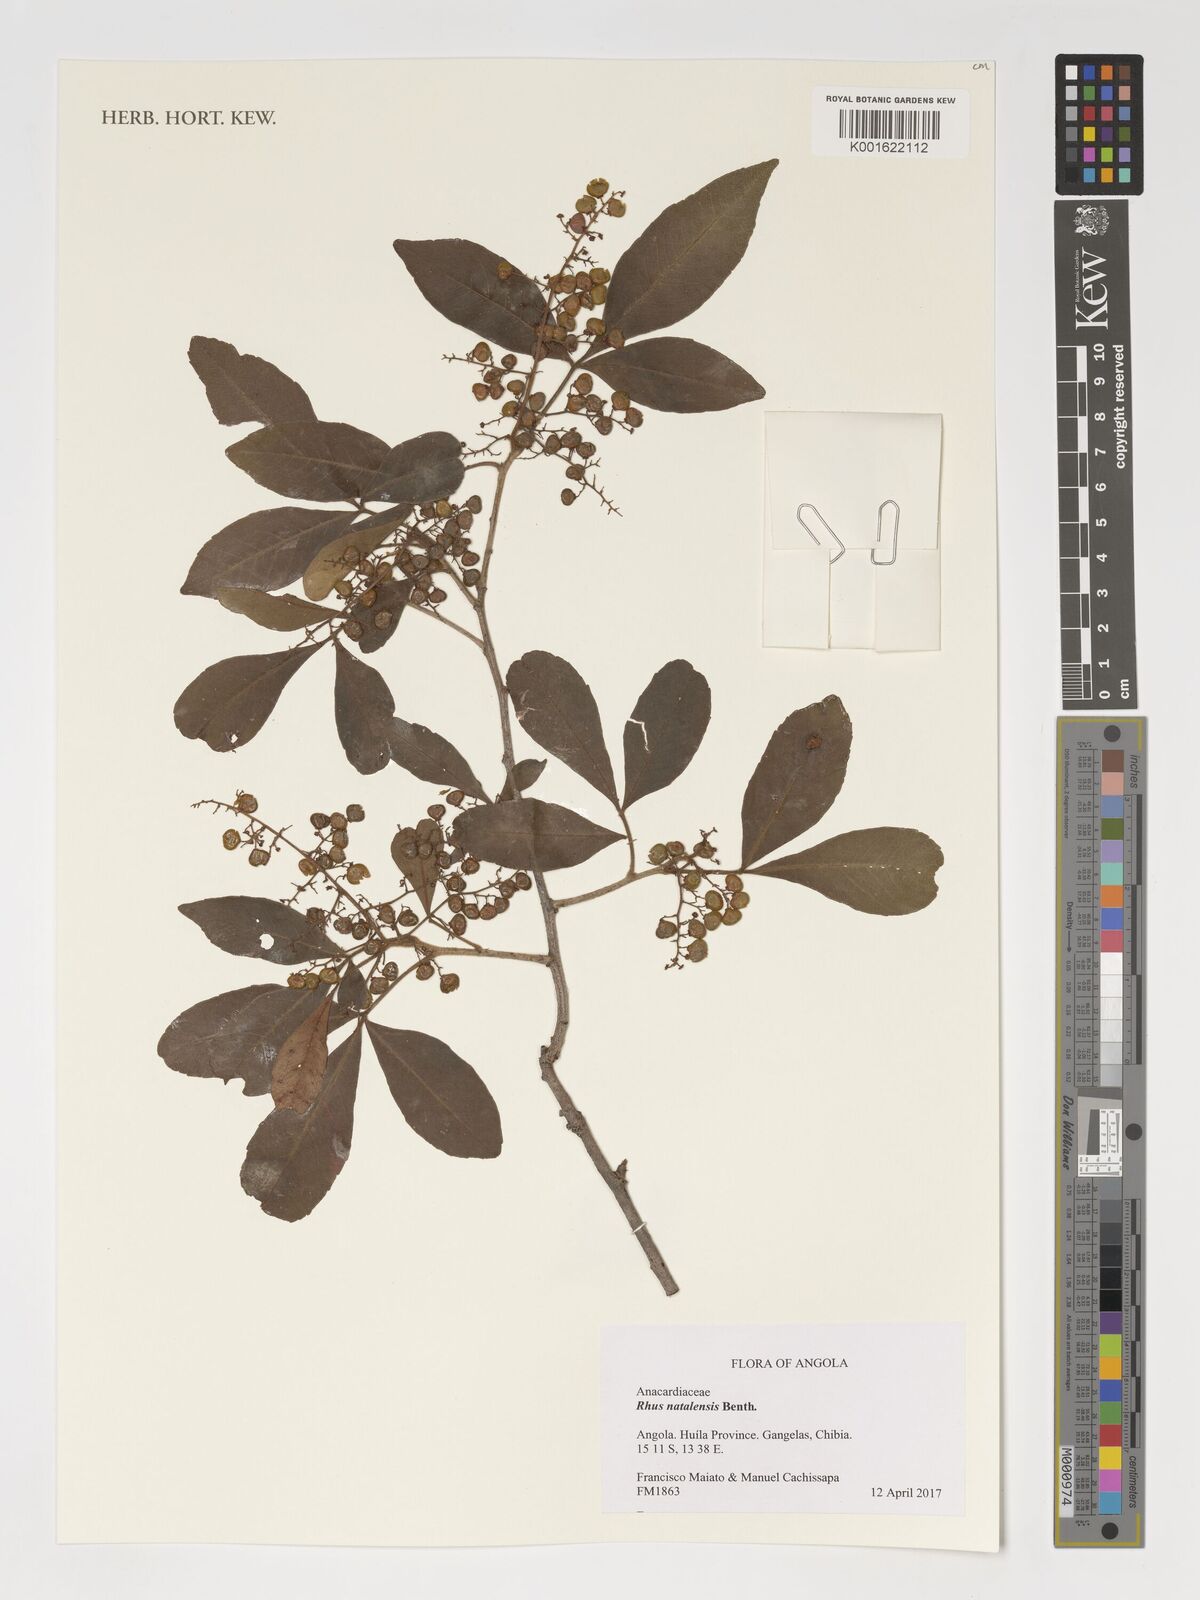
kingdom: Plantae
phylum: Tracheophyta
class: Magnoliopsida
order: Sapindales
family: Anacardiaceae
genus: Searsia
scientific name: Searsia natalensis
